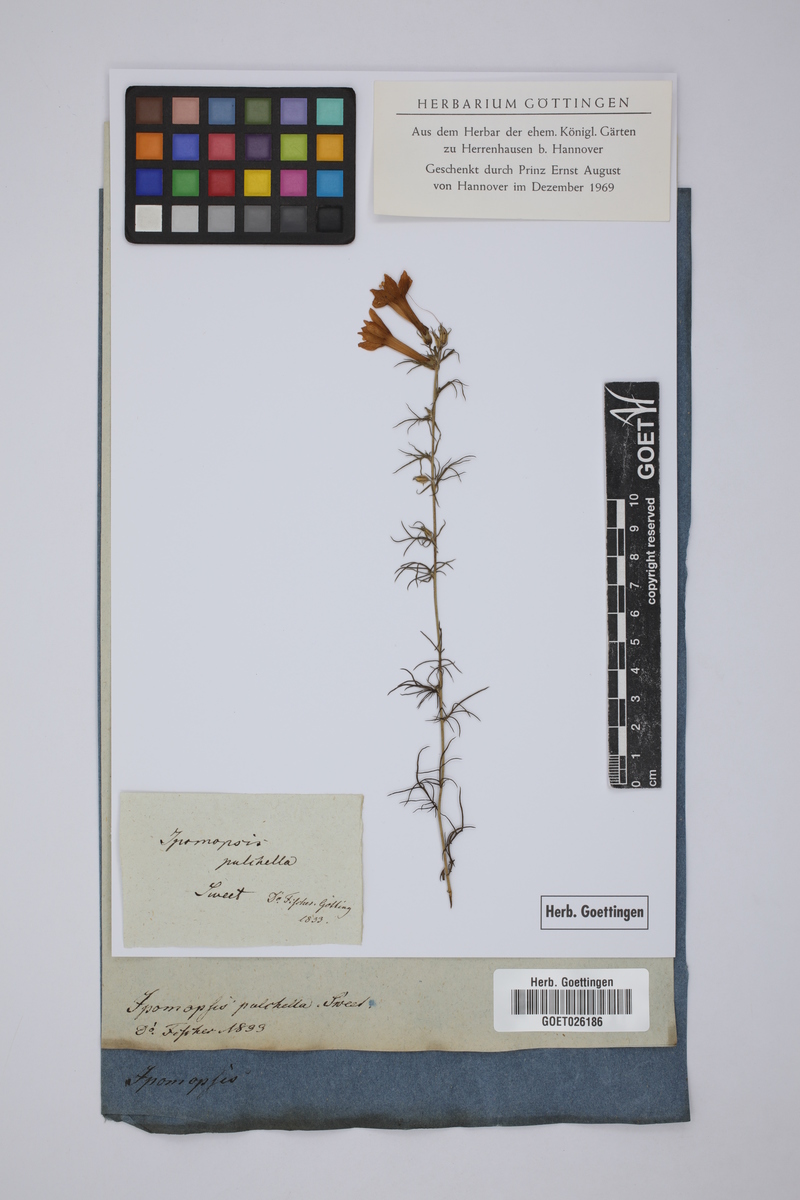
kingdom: Plantae
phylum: Tracheophyta
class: Magnoliopsida
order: Ericales
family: Polemoniaceae
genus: Ipomopsis
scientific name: Ipomopsis
